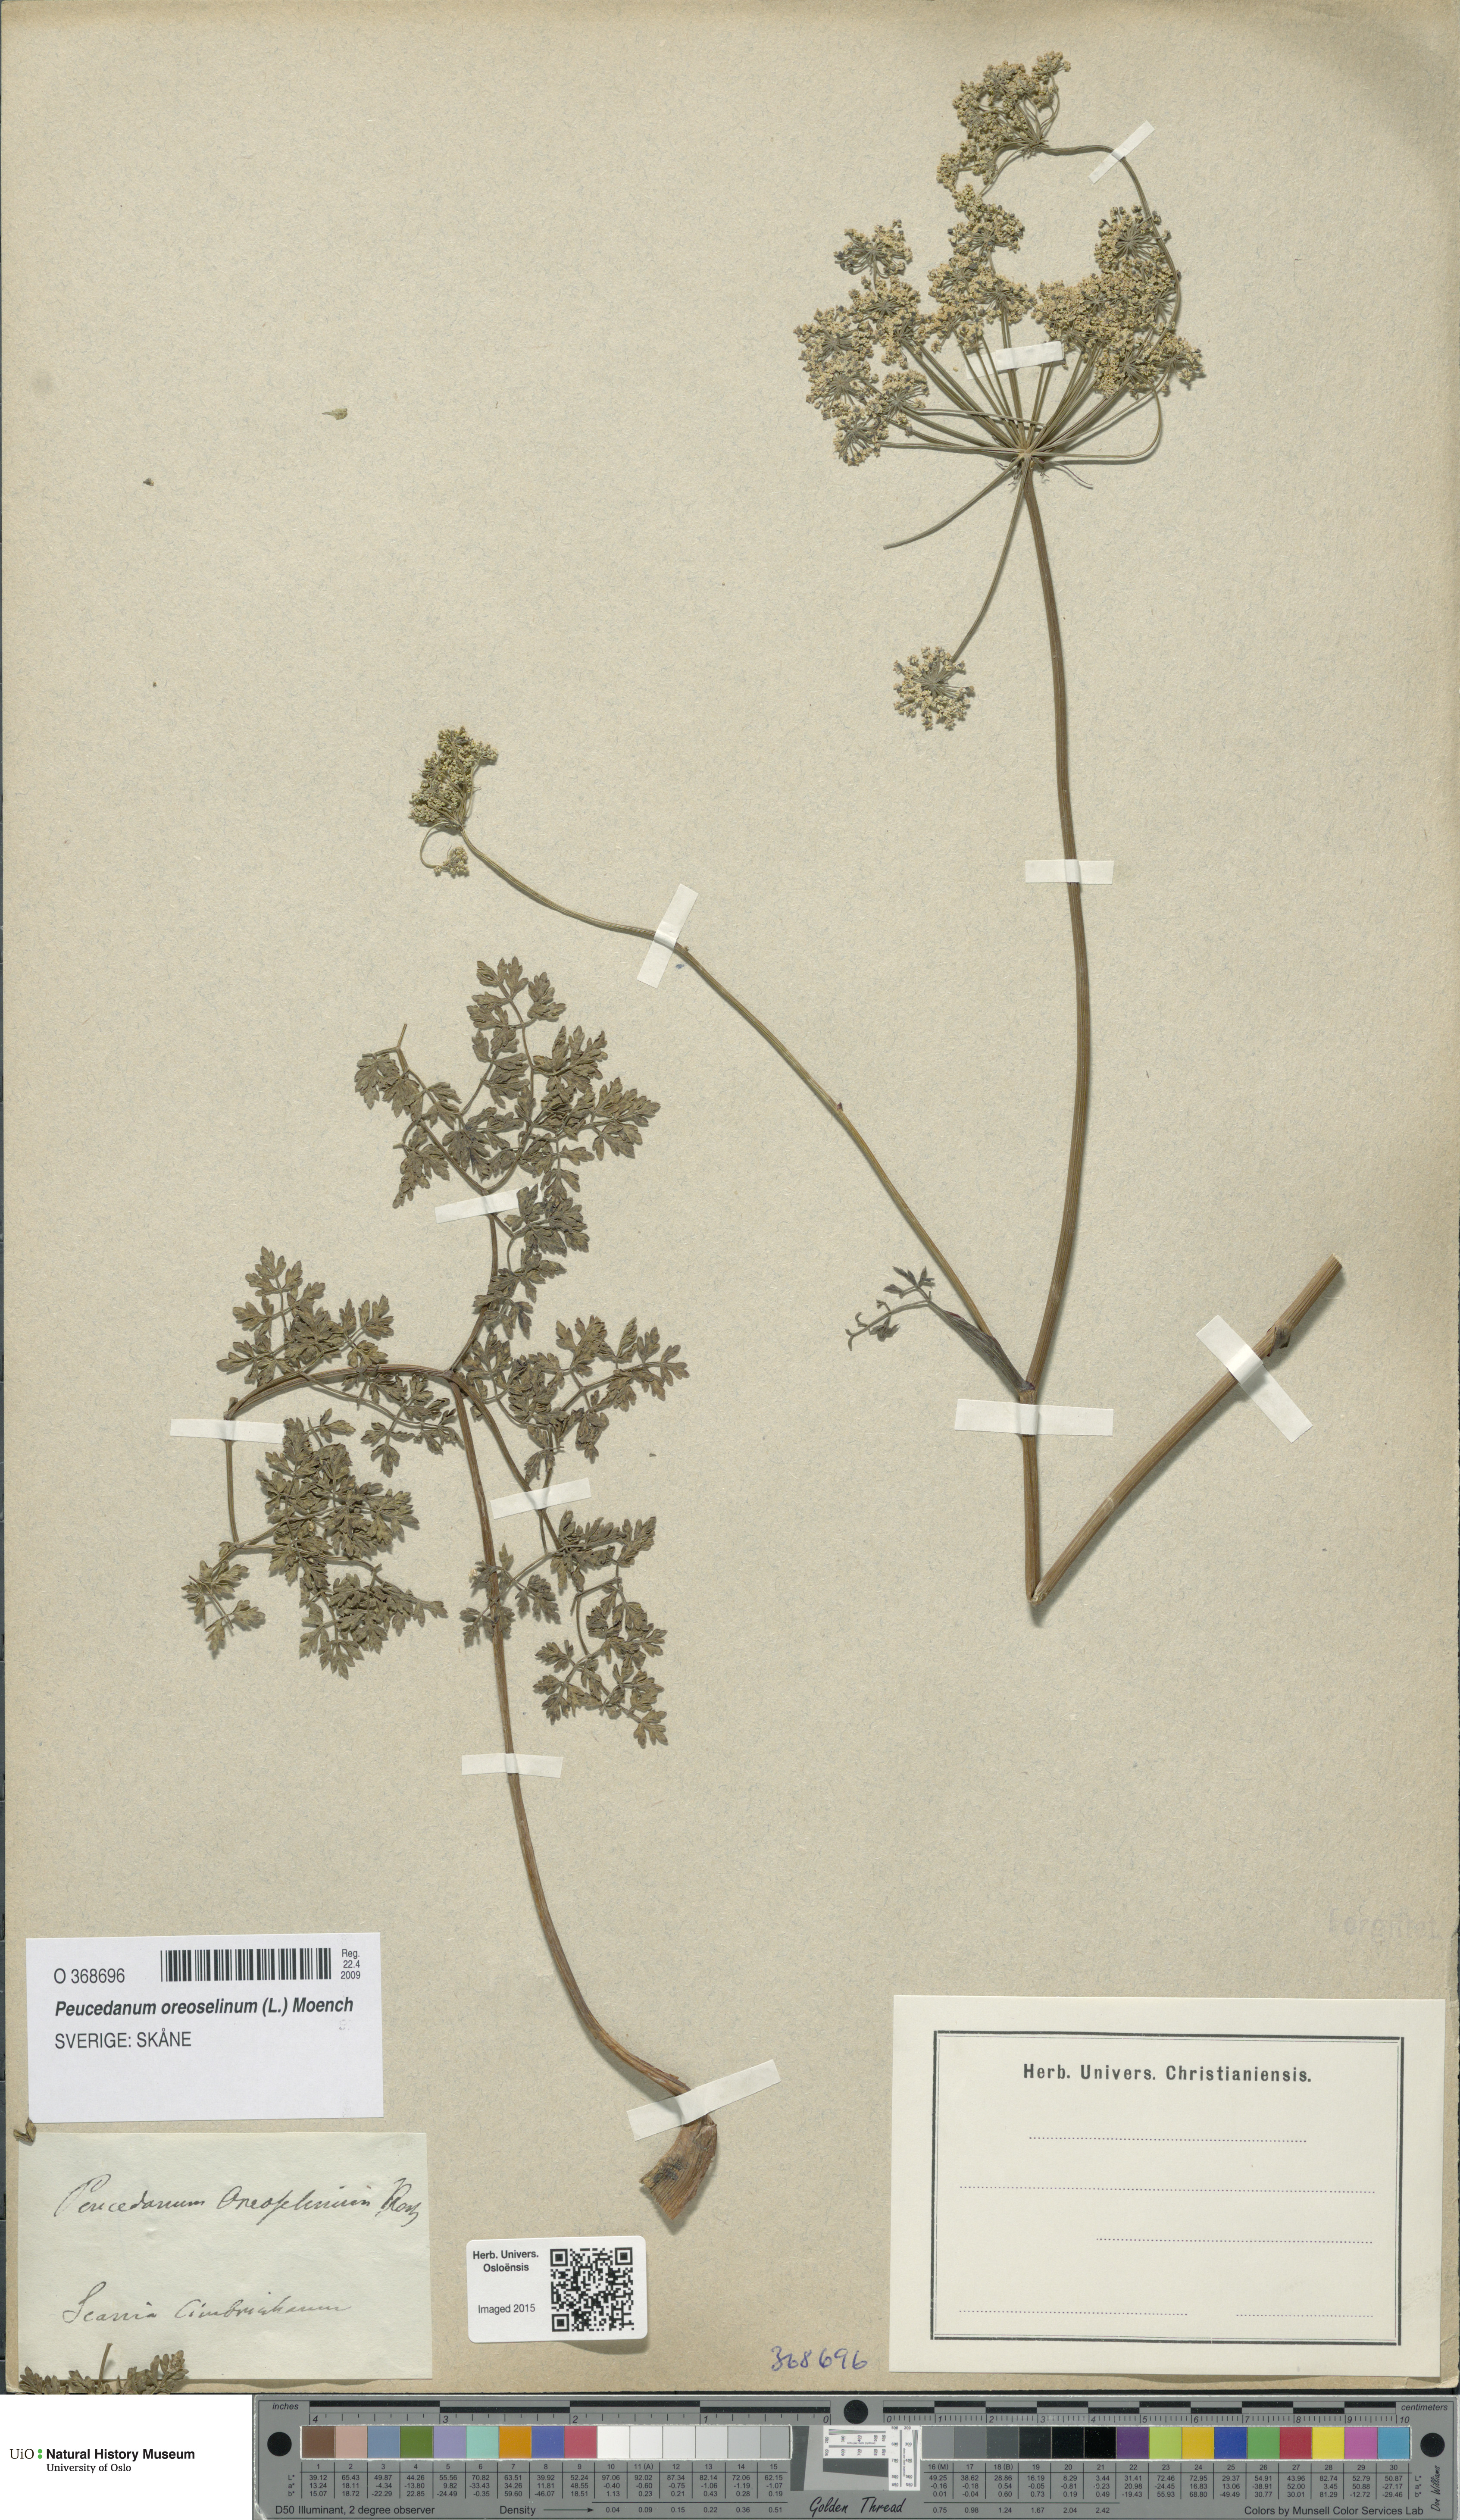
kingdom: Plantae
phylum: Tracheophyta
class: Magnoliopsida
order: Apiales
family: Apiaceae
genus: Oreoselinum
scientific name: Oreoselinum nigrum
